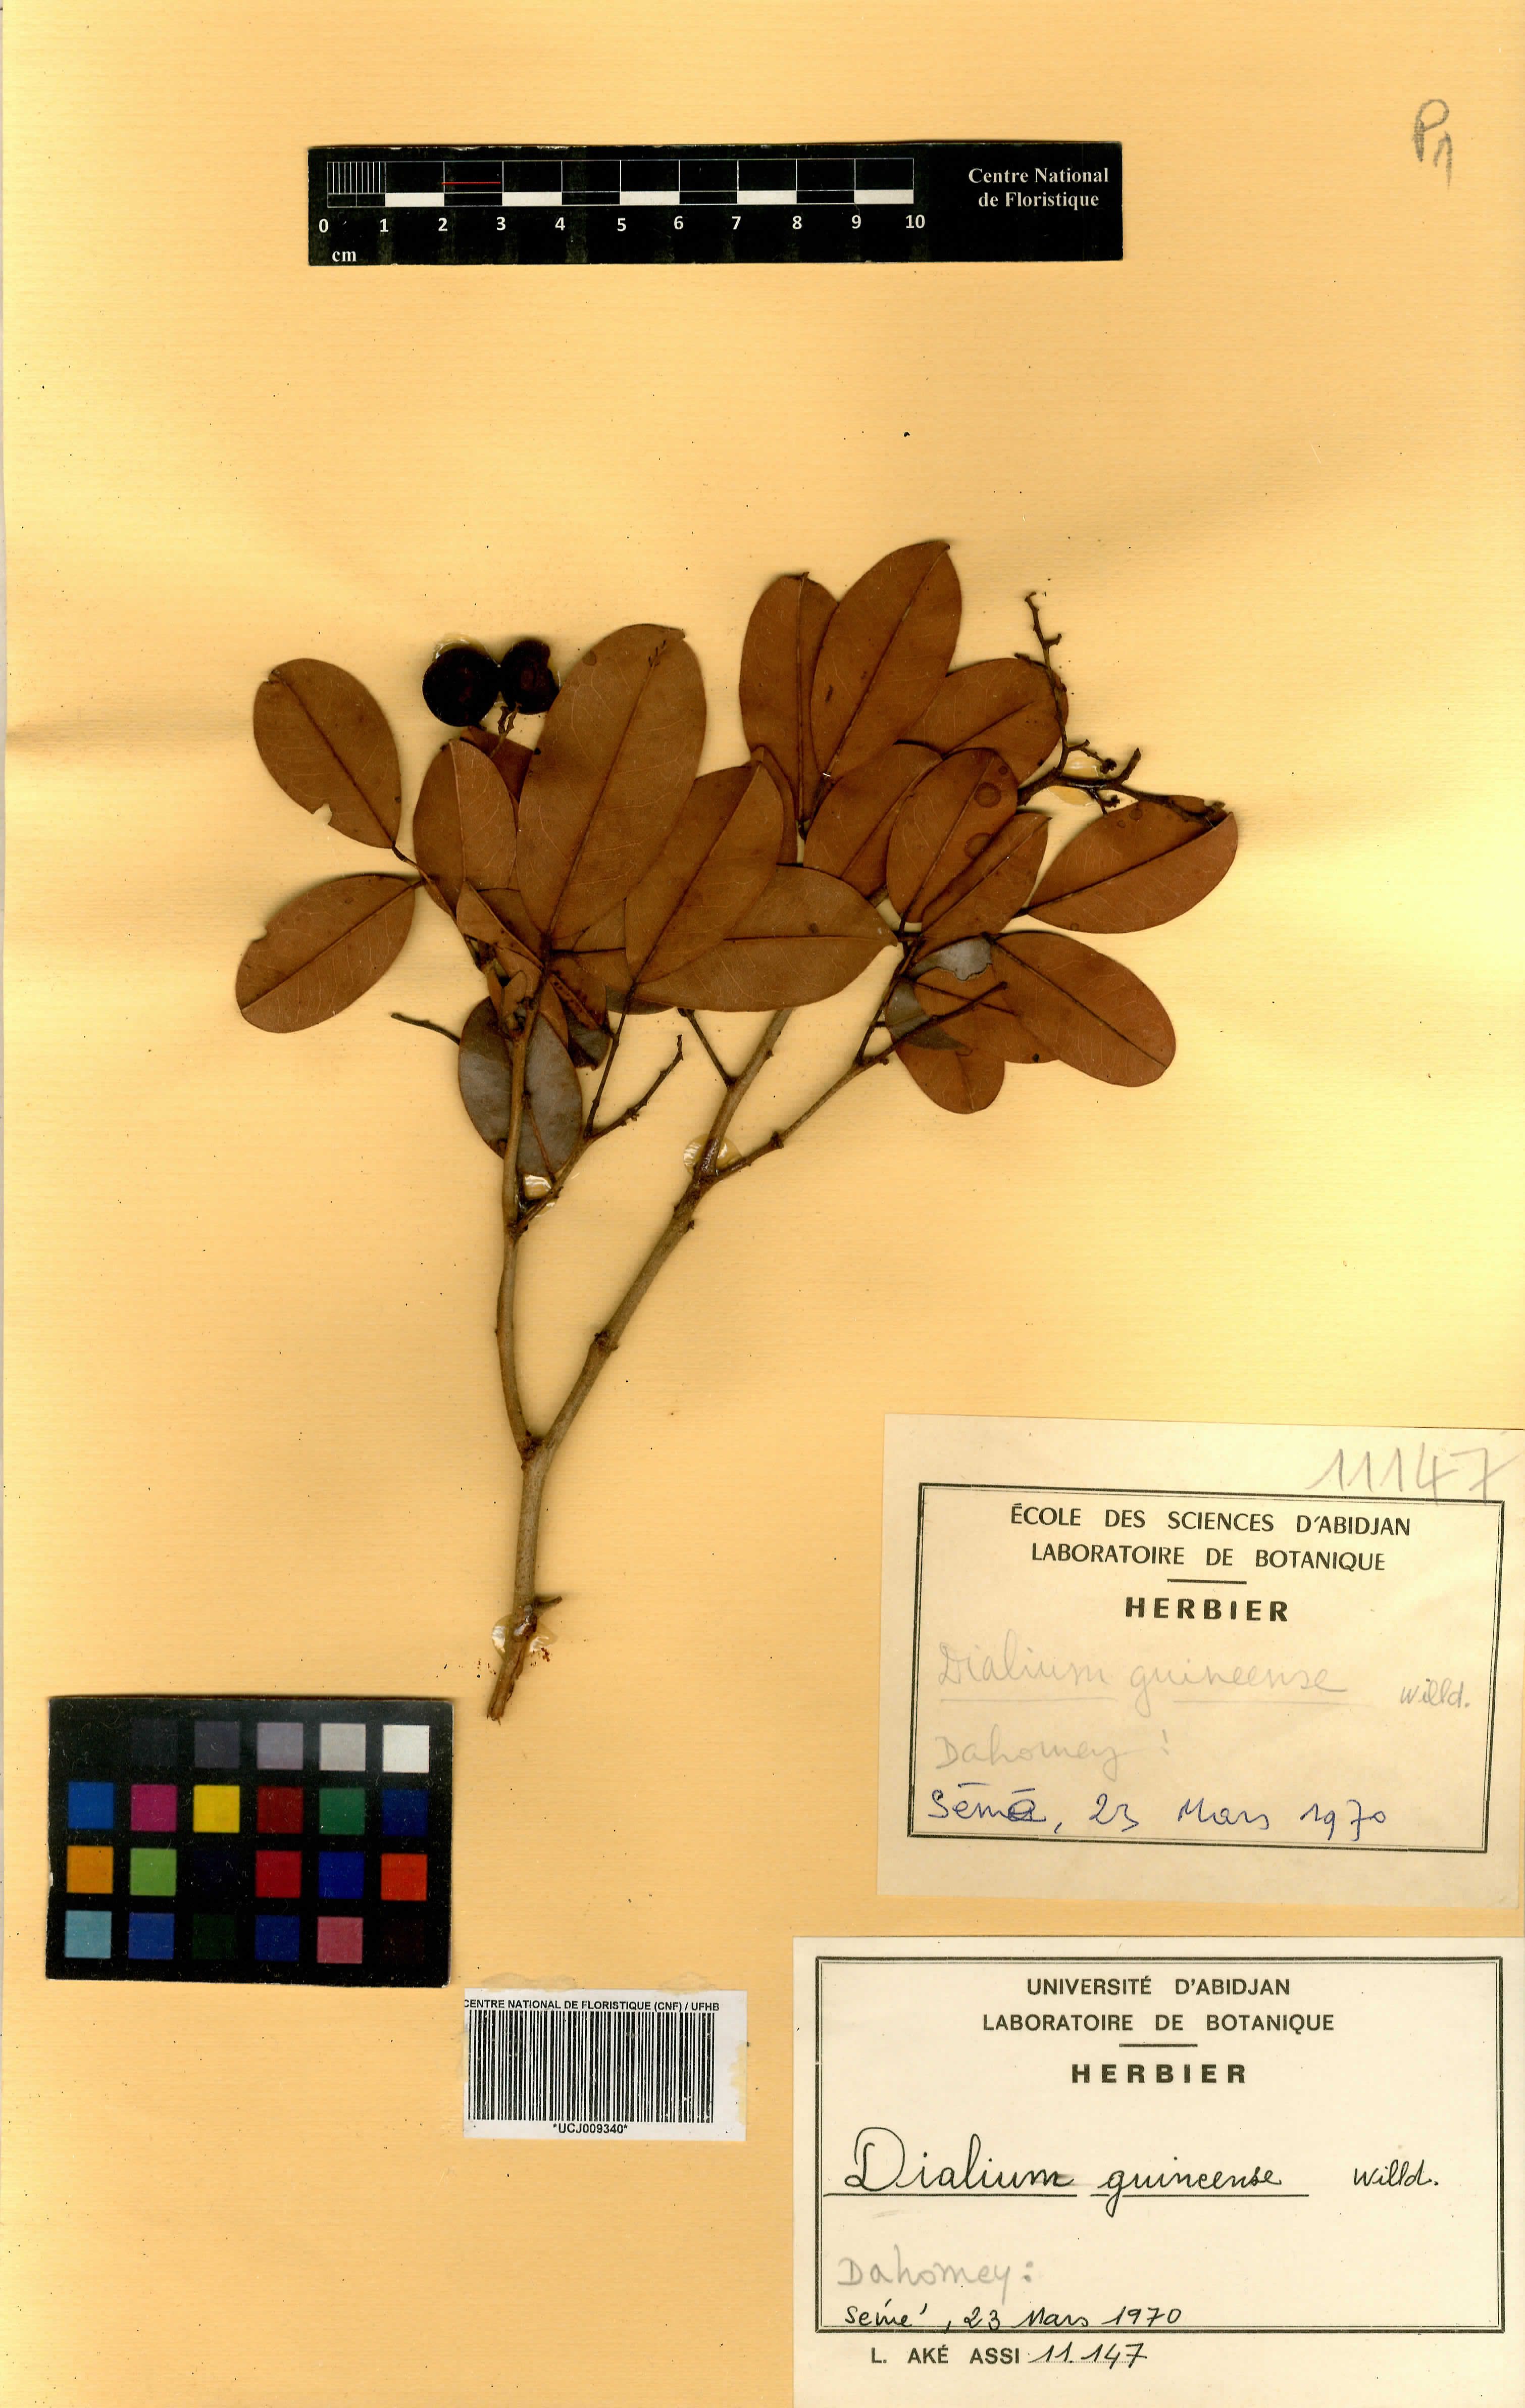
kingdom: Plantae
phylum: Tracheophyta
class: Magnoliopsida
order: Fabales
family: Fabaceae
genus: Dialium
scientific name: Dialium guineense
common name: Sierra leone-tamarind
